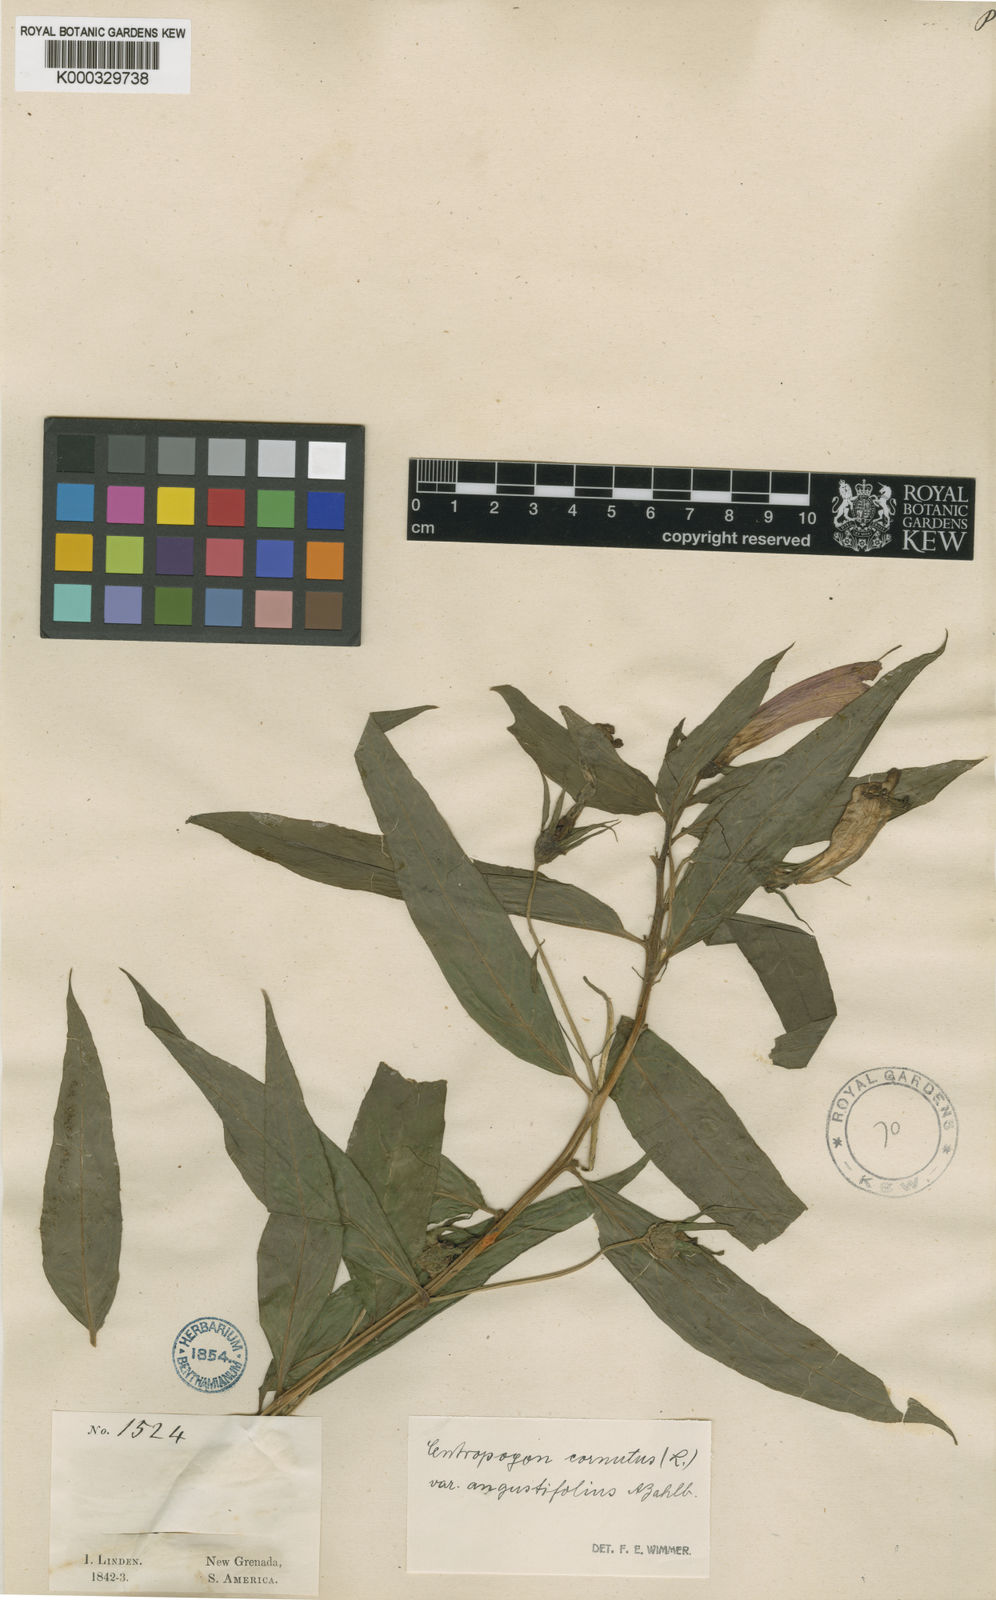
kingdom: Plantae
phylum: Tracheophyta
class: Magnoliopsida
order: Asterales
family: Campanulaceae
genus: Centropogon
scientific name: Centropogon cornutus
